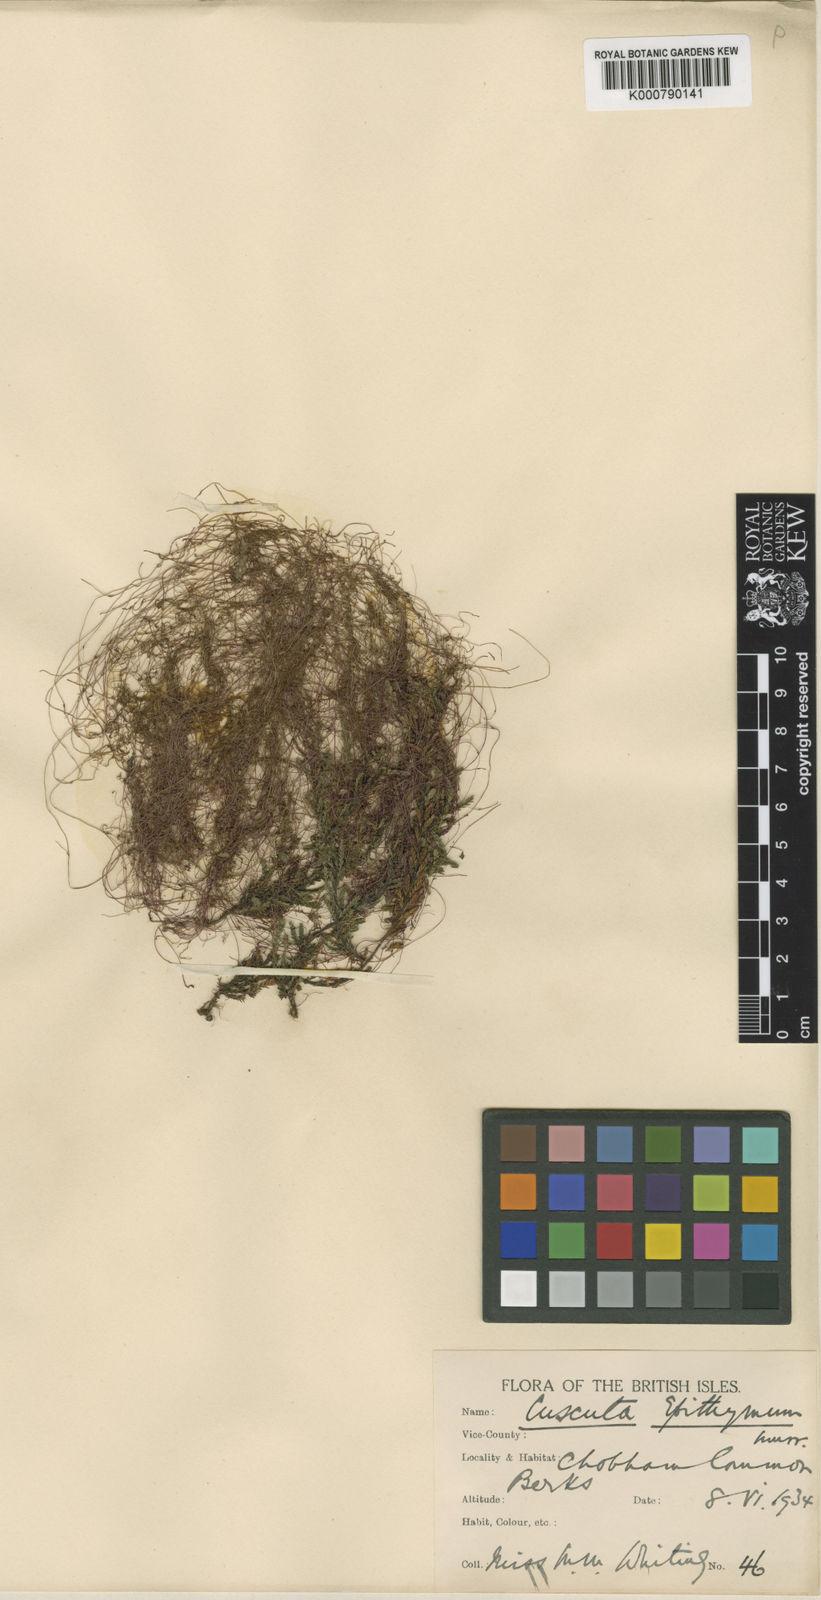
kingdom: Plantae
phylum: Tracheophyta
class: Magnoliopsida
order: Solanales
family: Convolvulaceae
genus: Cuscuta
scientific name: Cuscuta epithymum
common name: Clover dodder
